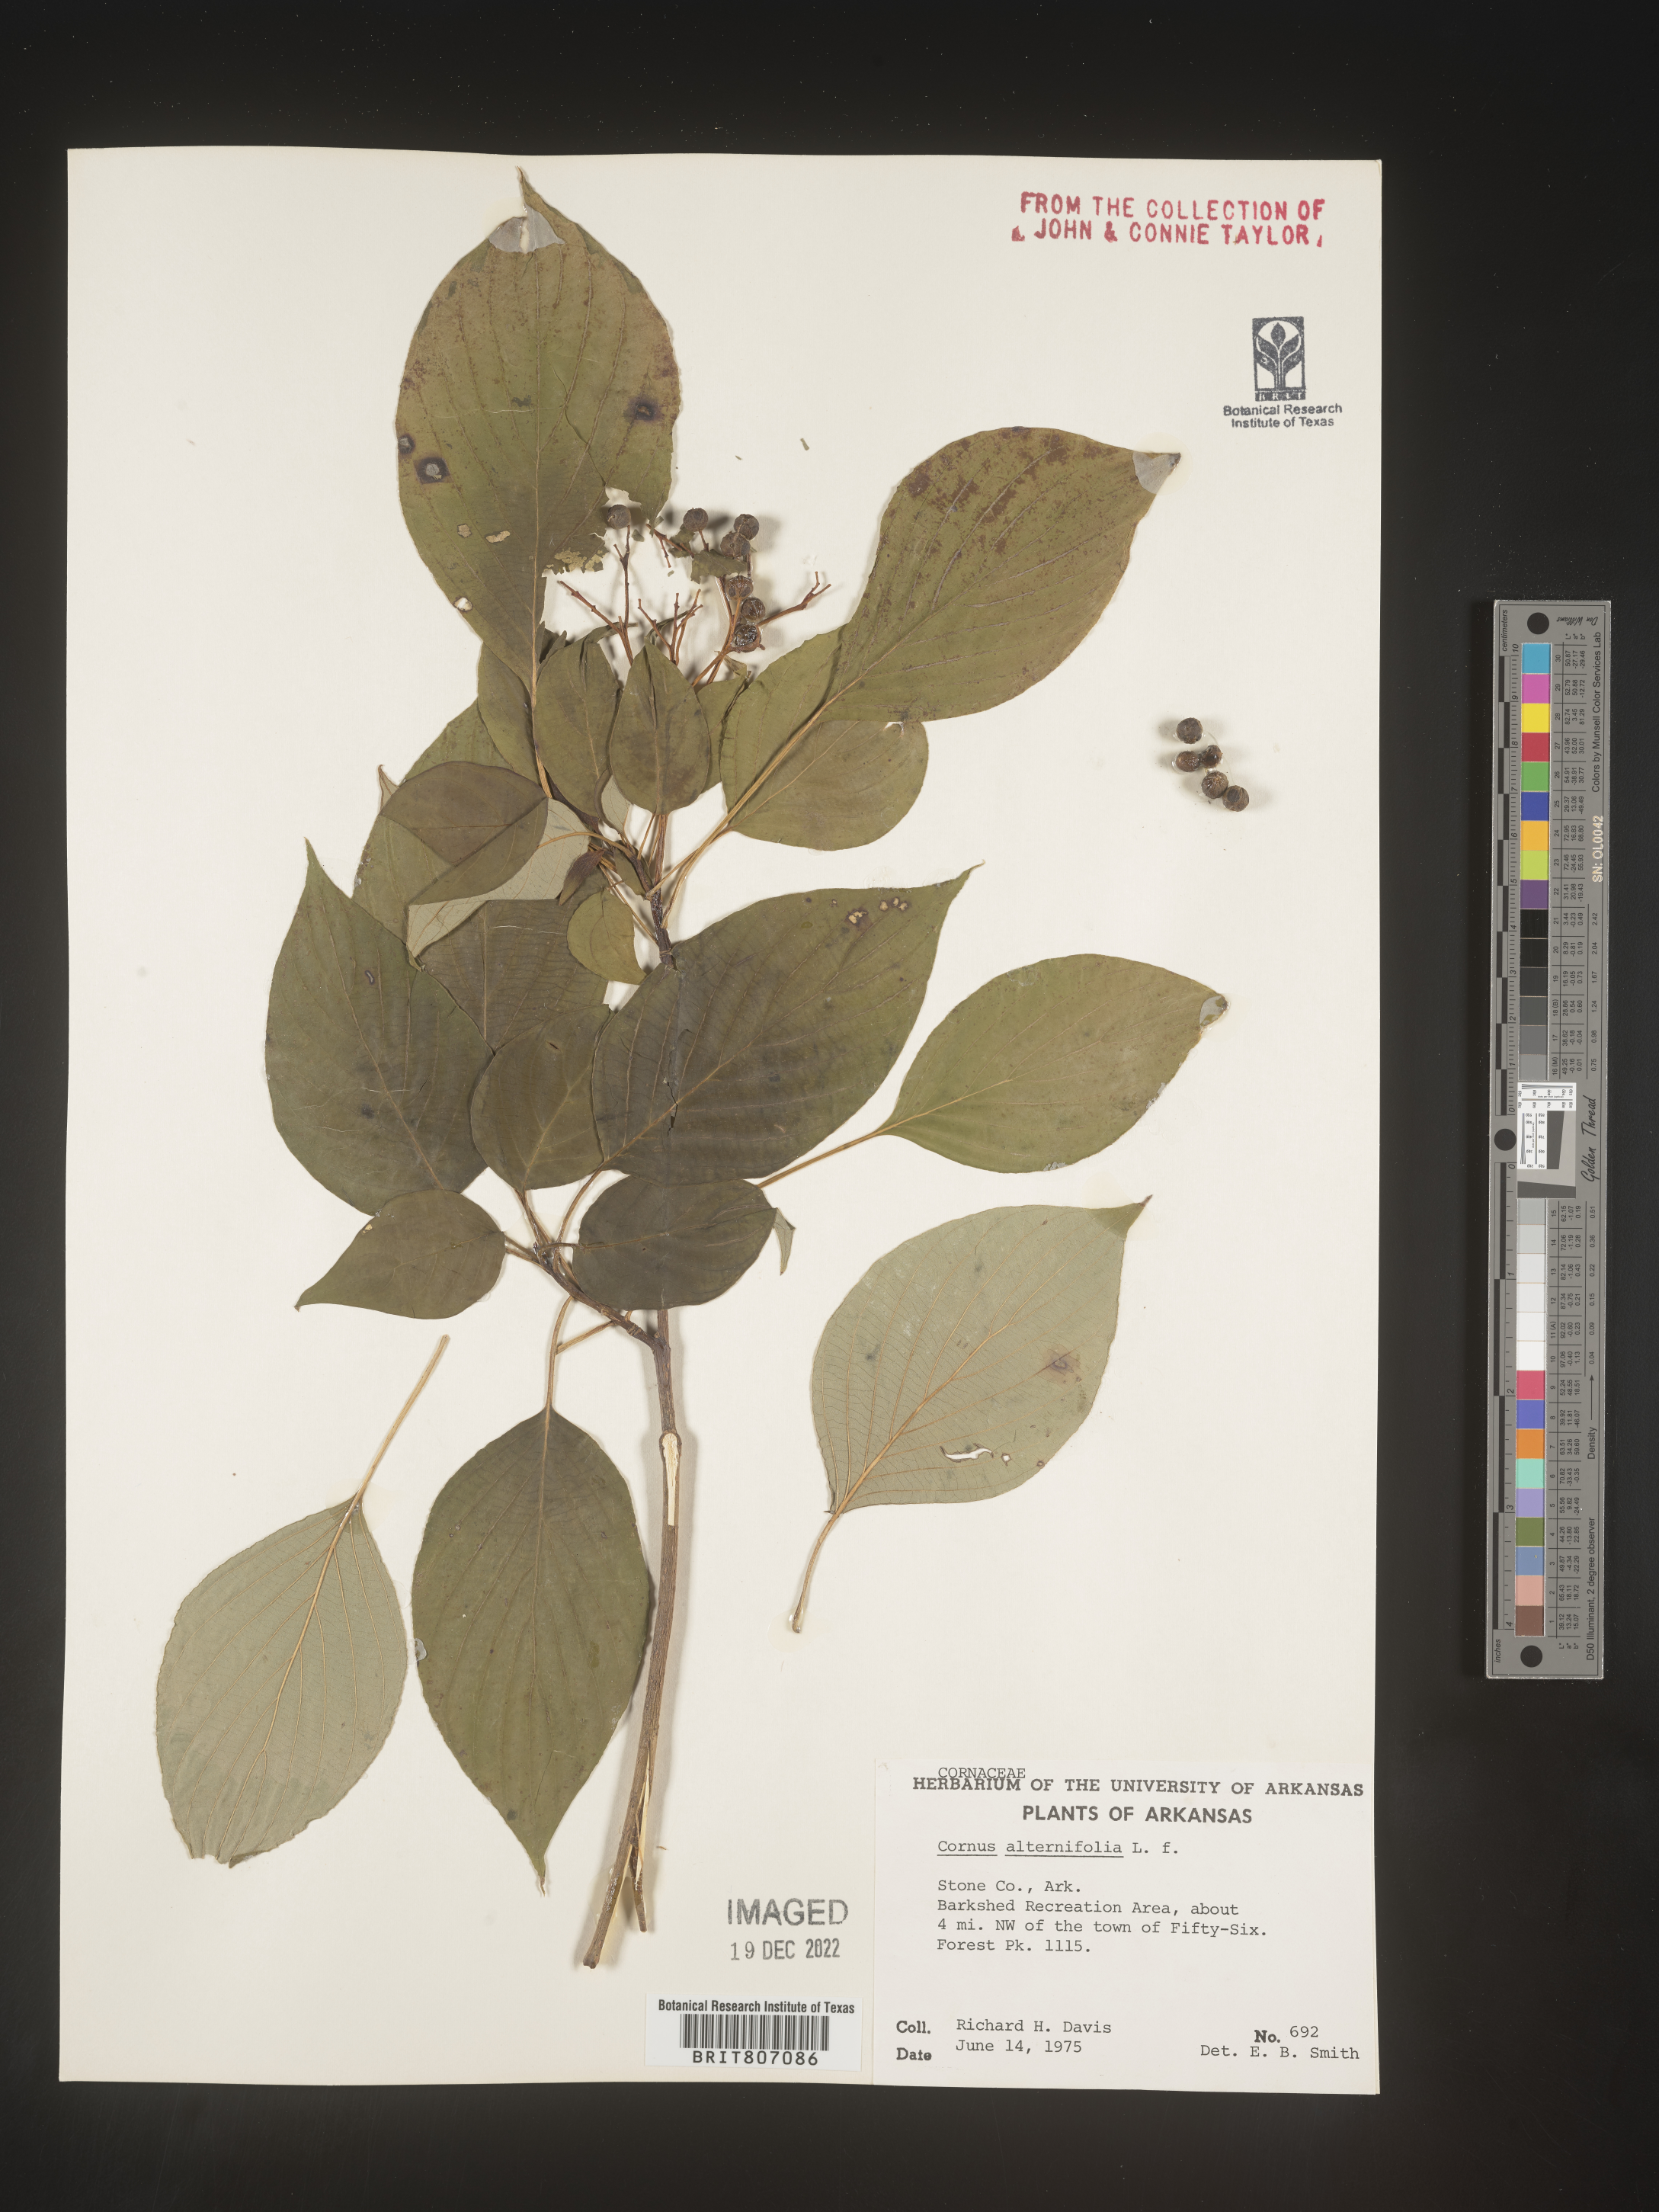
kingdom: Plantae
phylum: Tracheophyta
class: Magnoliopsida
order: Cornales
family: Cornaceae
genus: Cornus
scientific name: Cornus alternifolia
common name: Pagoda dogwood
